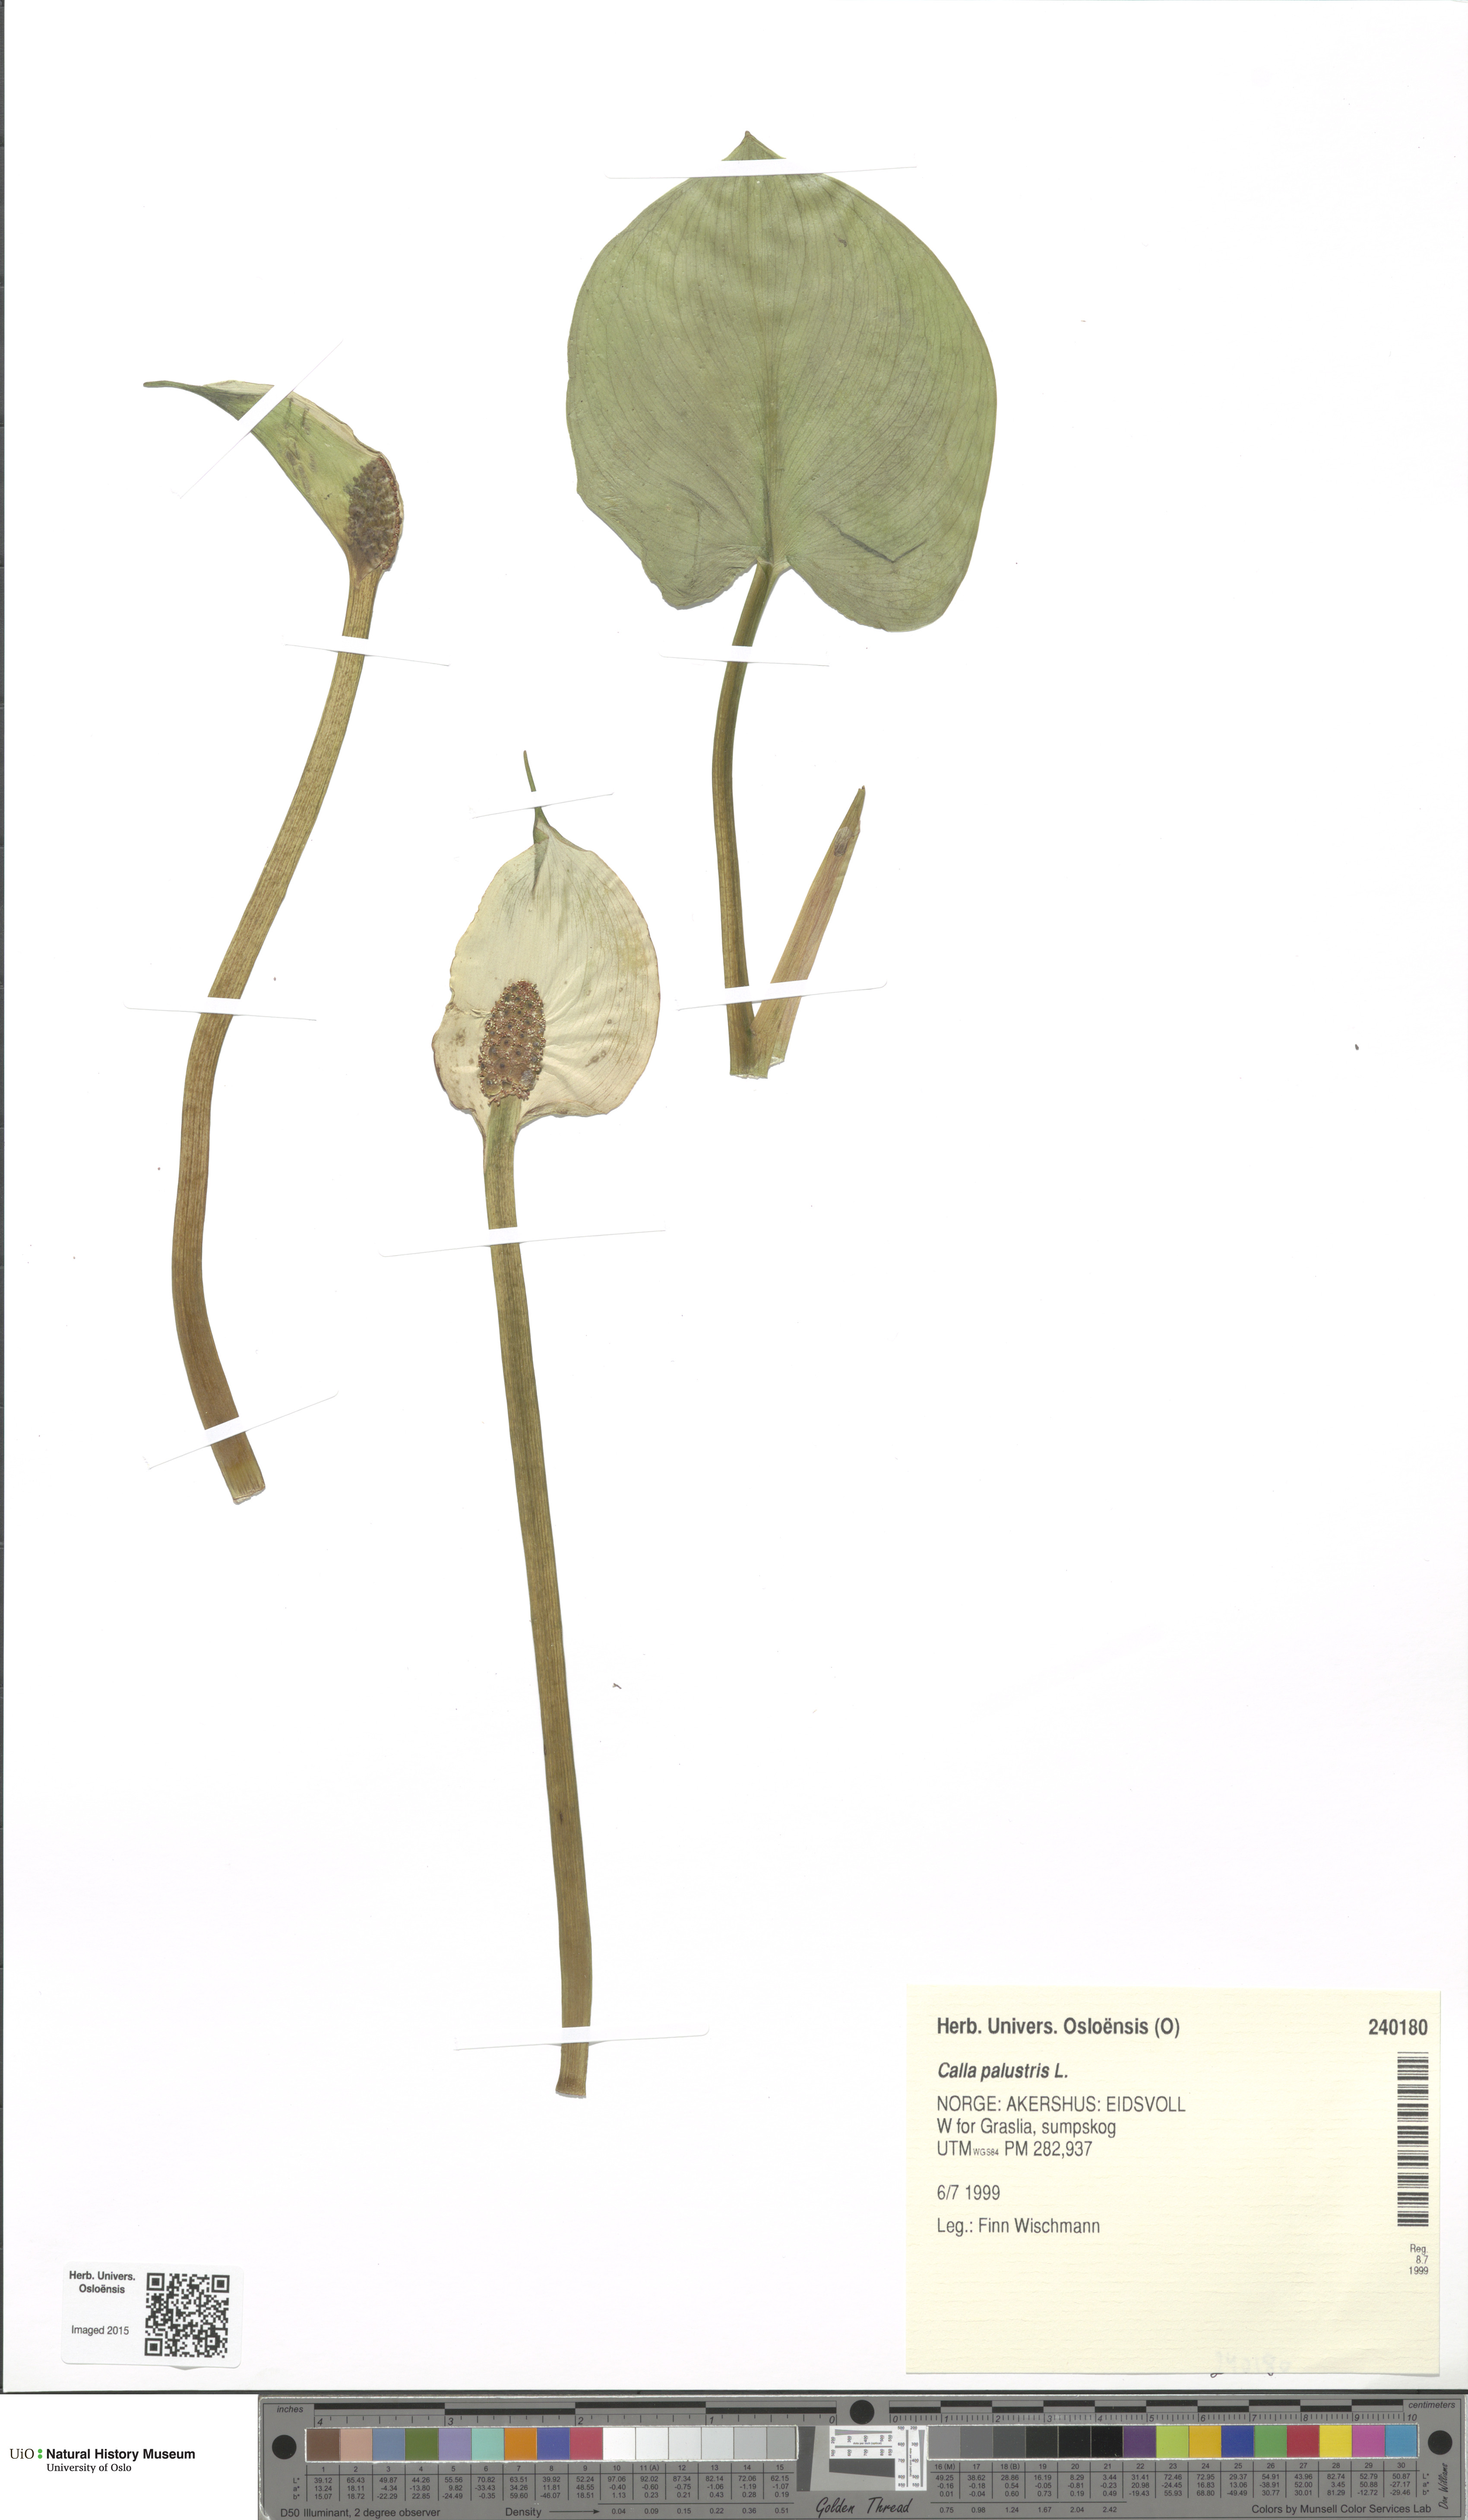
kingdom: Plantae
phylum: Tracheophyta
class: Liliopsida
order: Alismatales
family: Araceae
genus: Calla
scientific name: Calla palustris
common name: Bog arum
